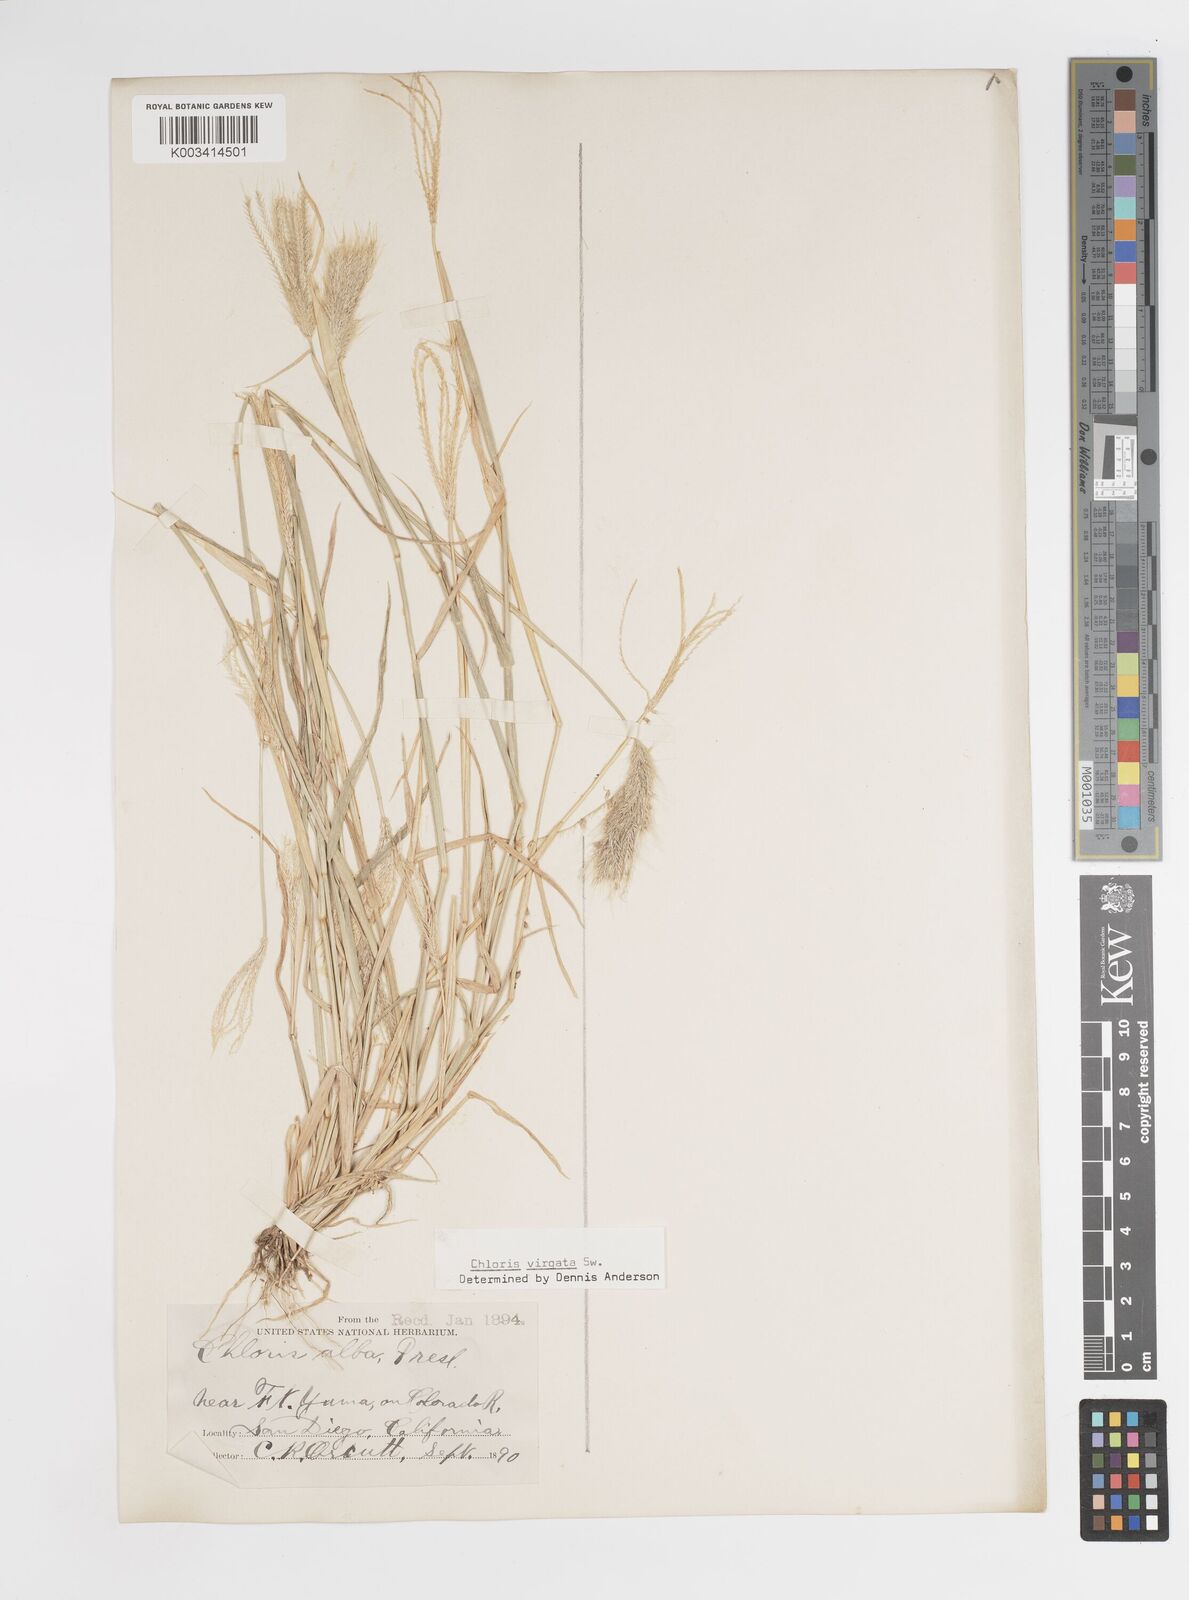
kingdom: Plantae
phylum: Tracheophyta
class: Liliopsida
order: Poales
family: Poaceae
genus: Chloris
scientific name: Chloris virgata
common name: Feathery rhodes-grass
